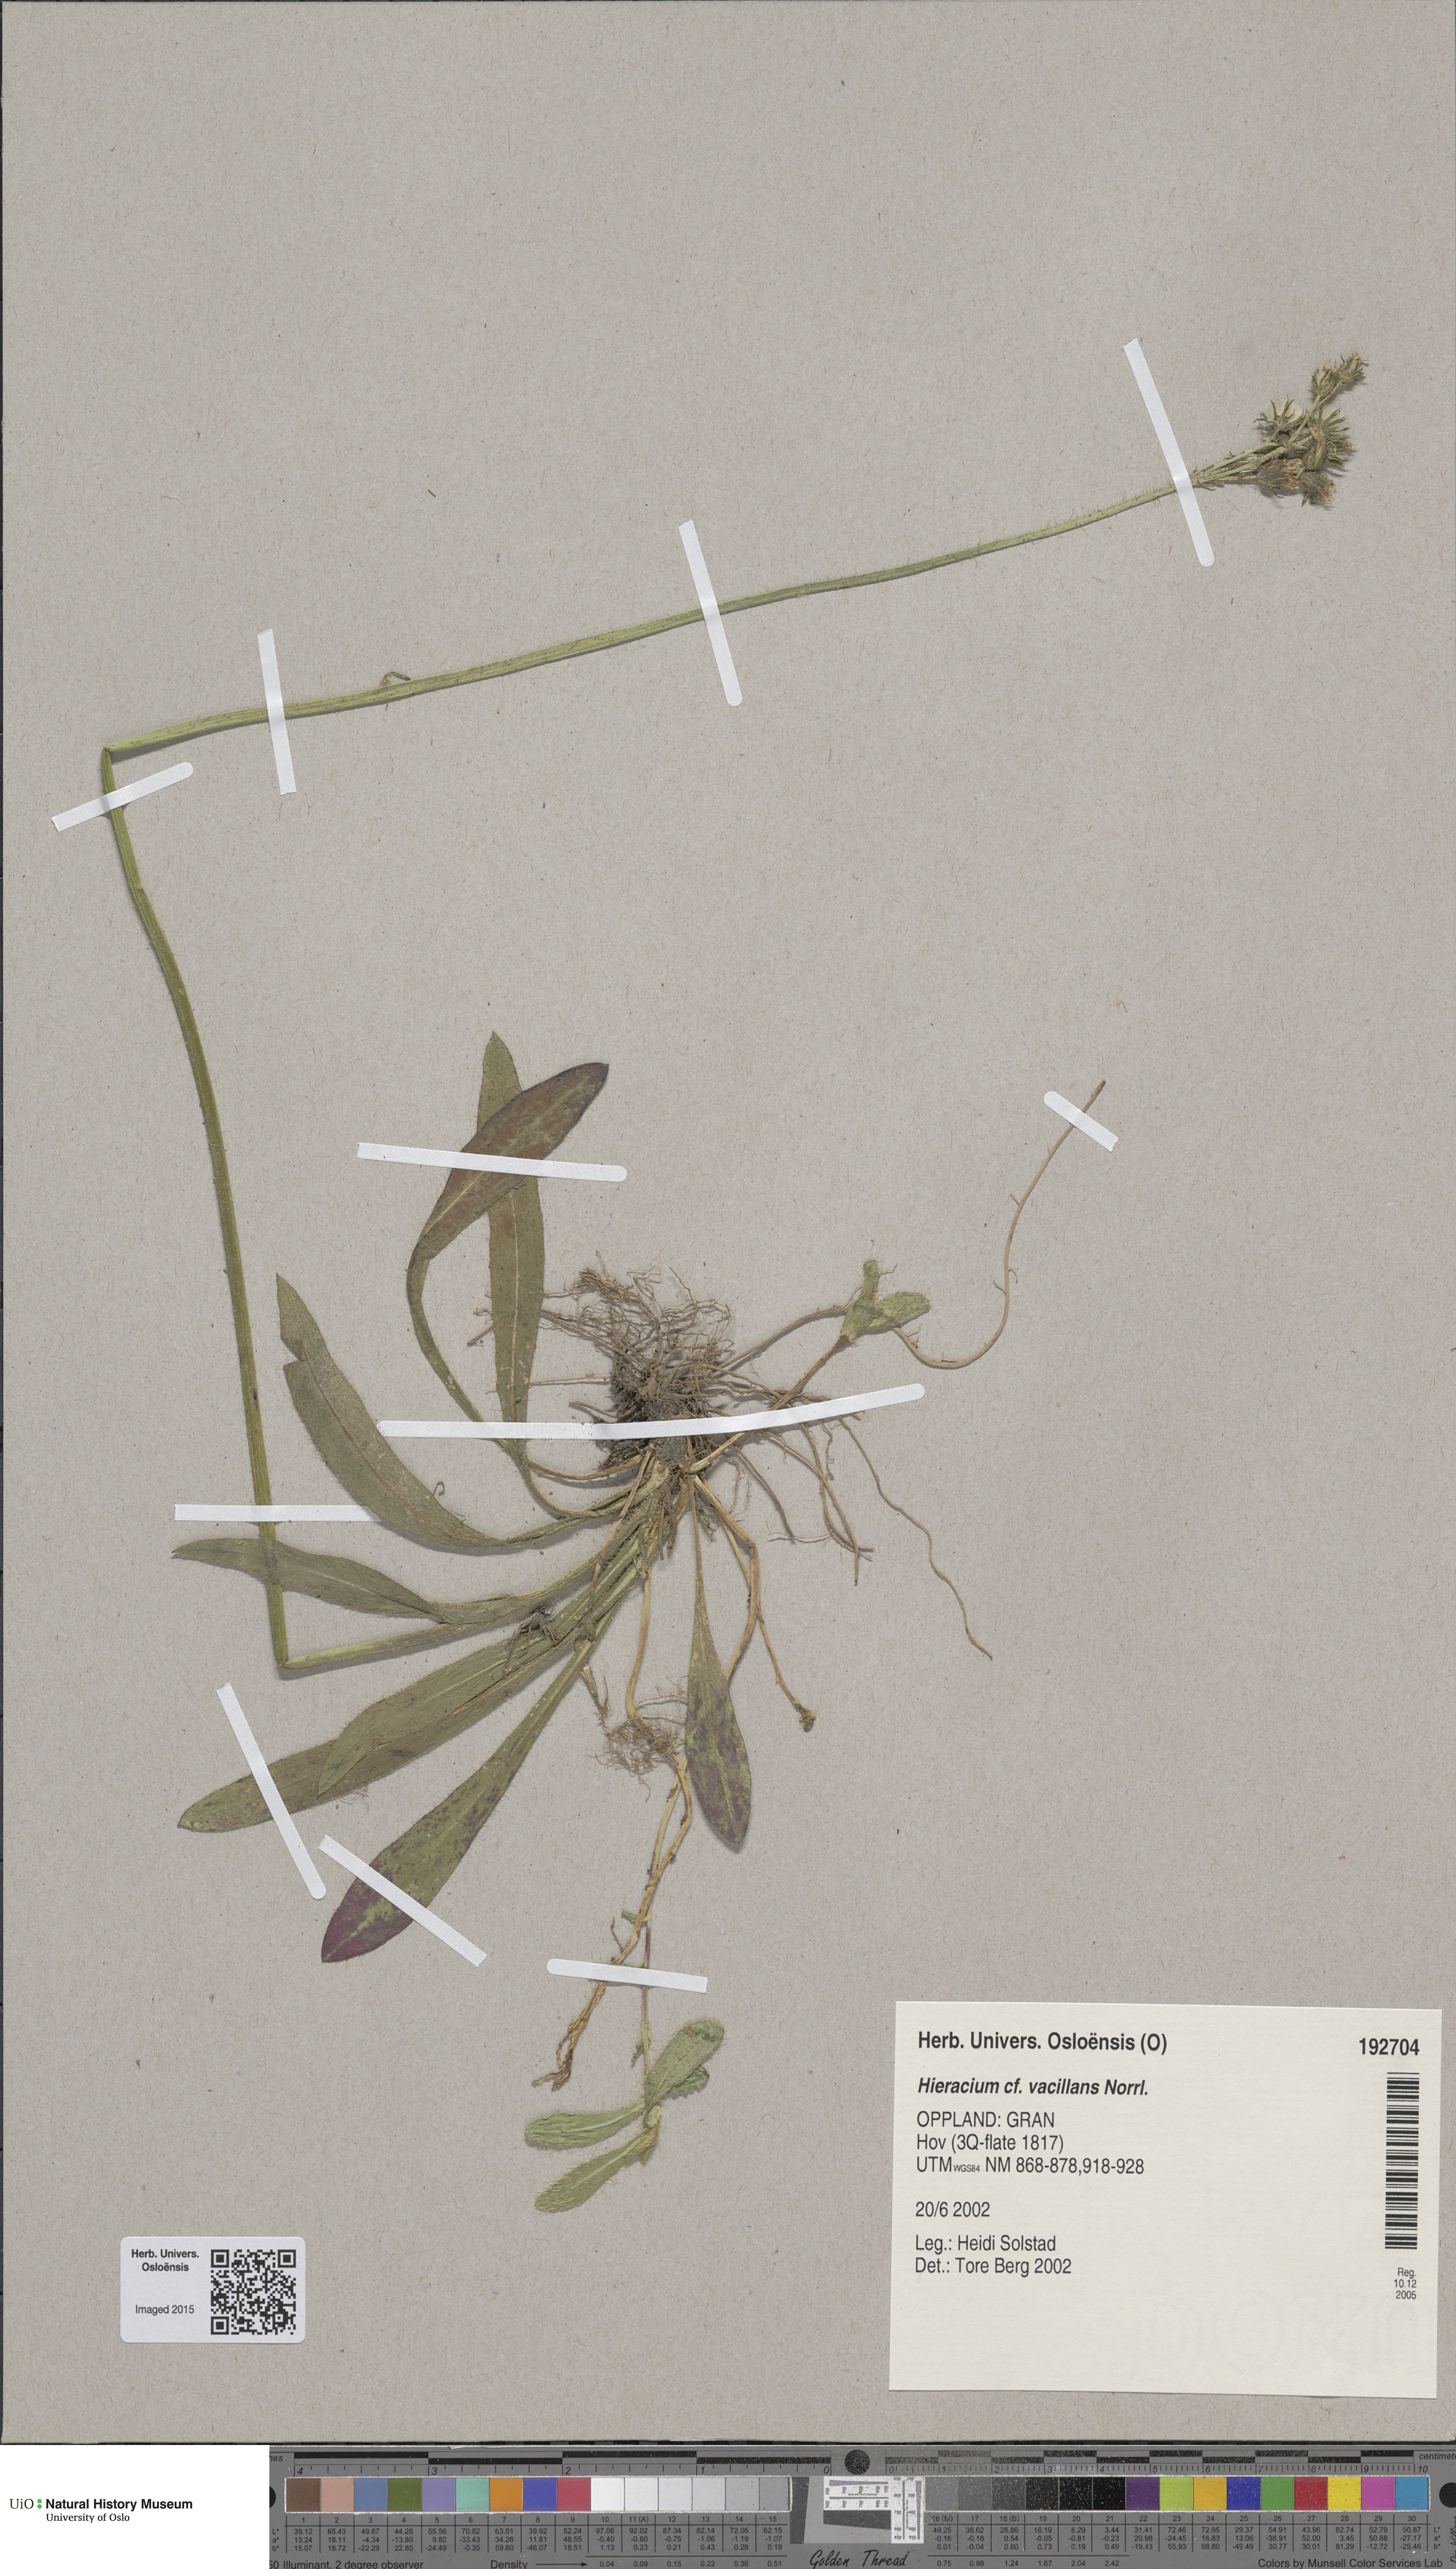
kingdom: Plantae
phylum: Tracheophyta
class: Magnoliopsida
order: Asterales
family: Asteraceae
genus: Pilosella
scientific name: Pilosella glomerata
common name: Queen devil hawkweed
